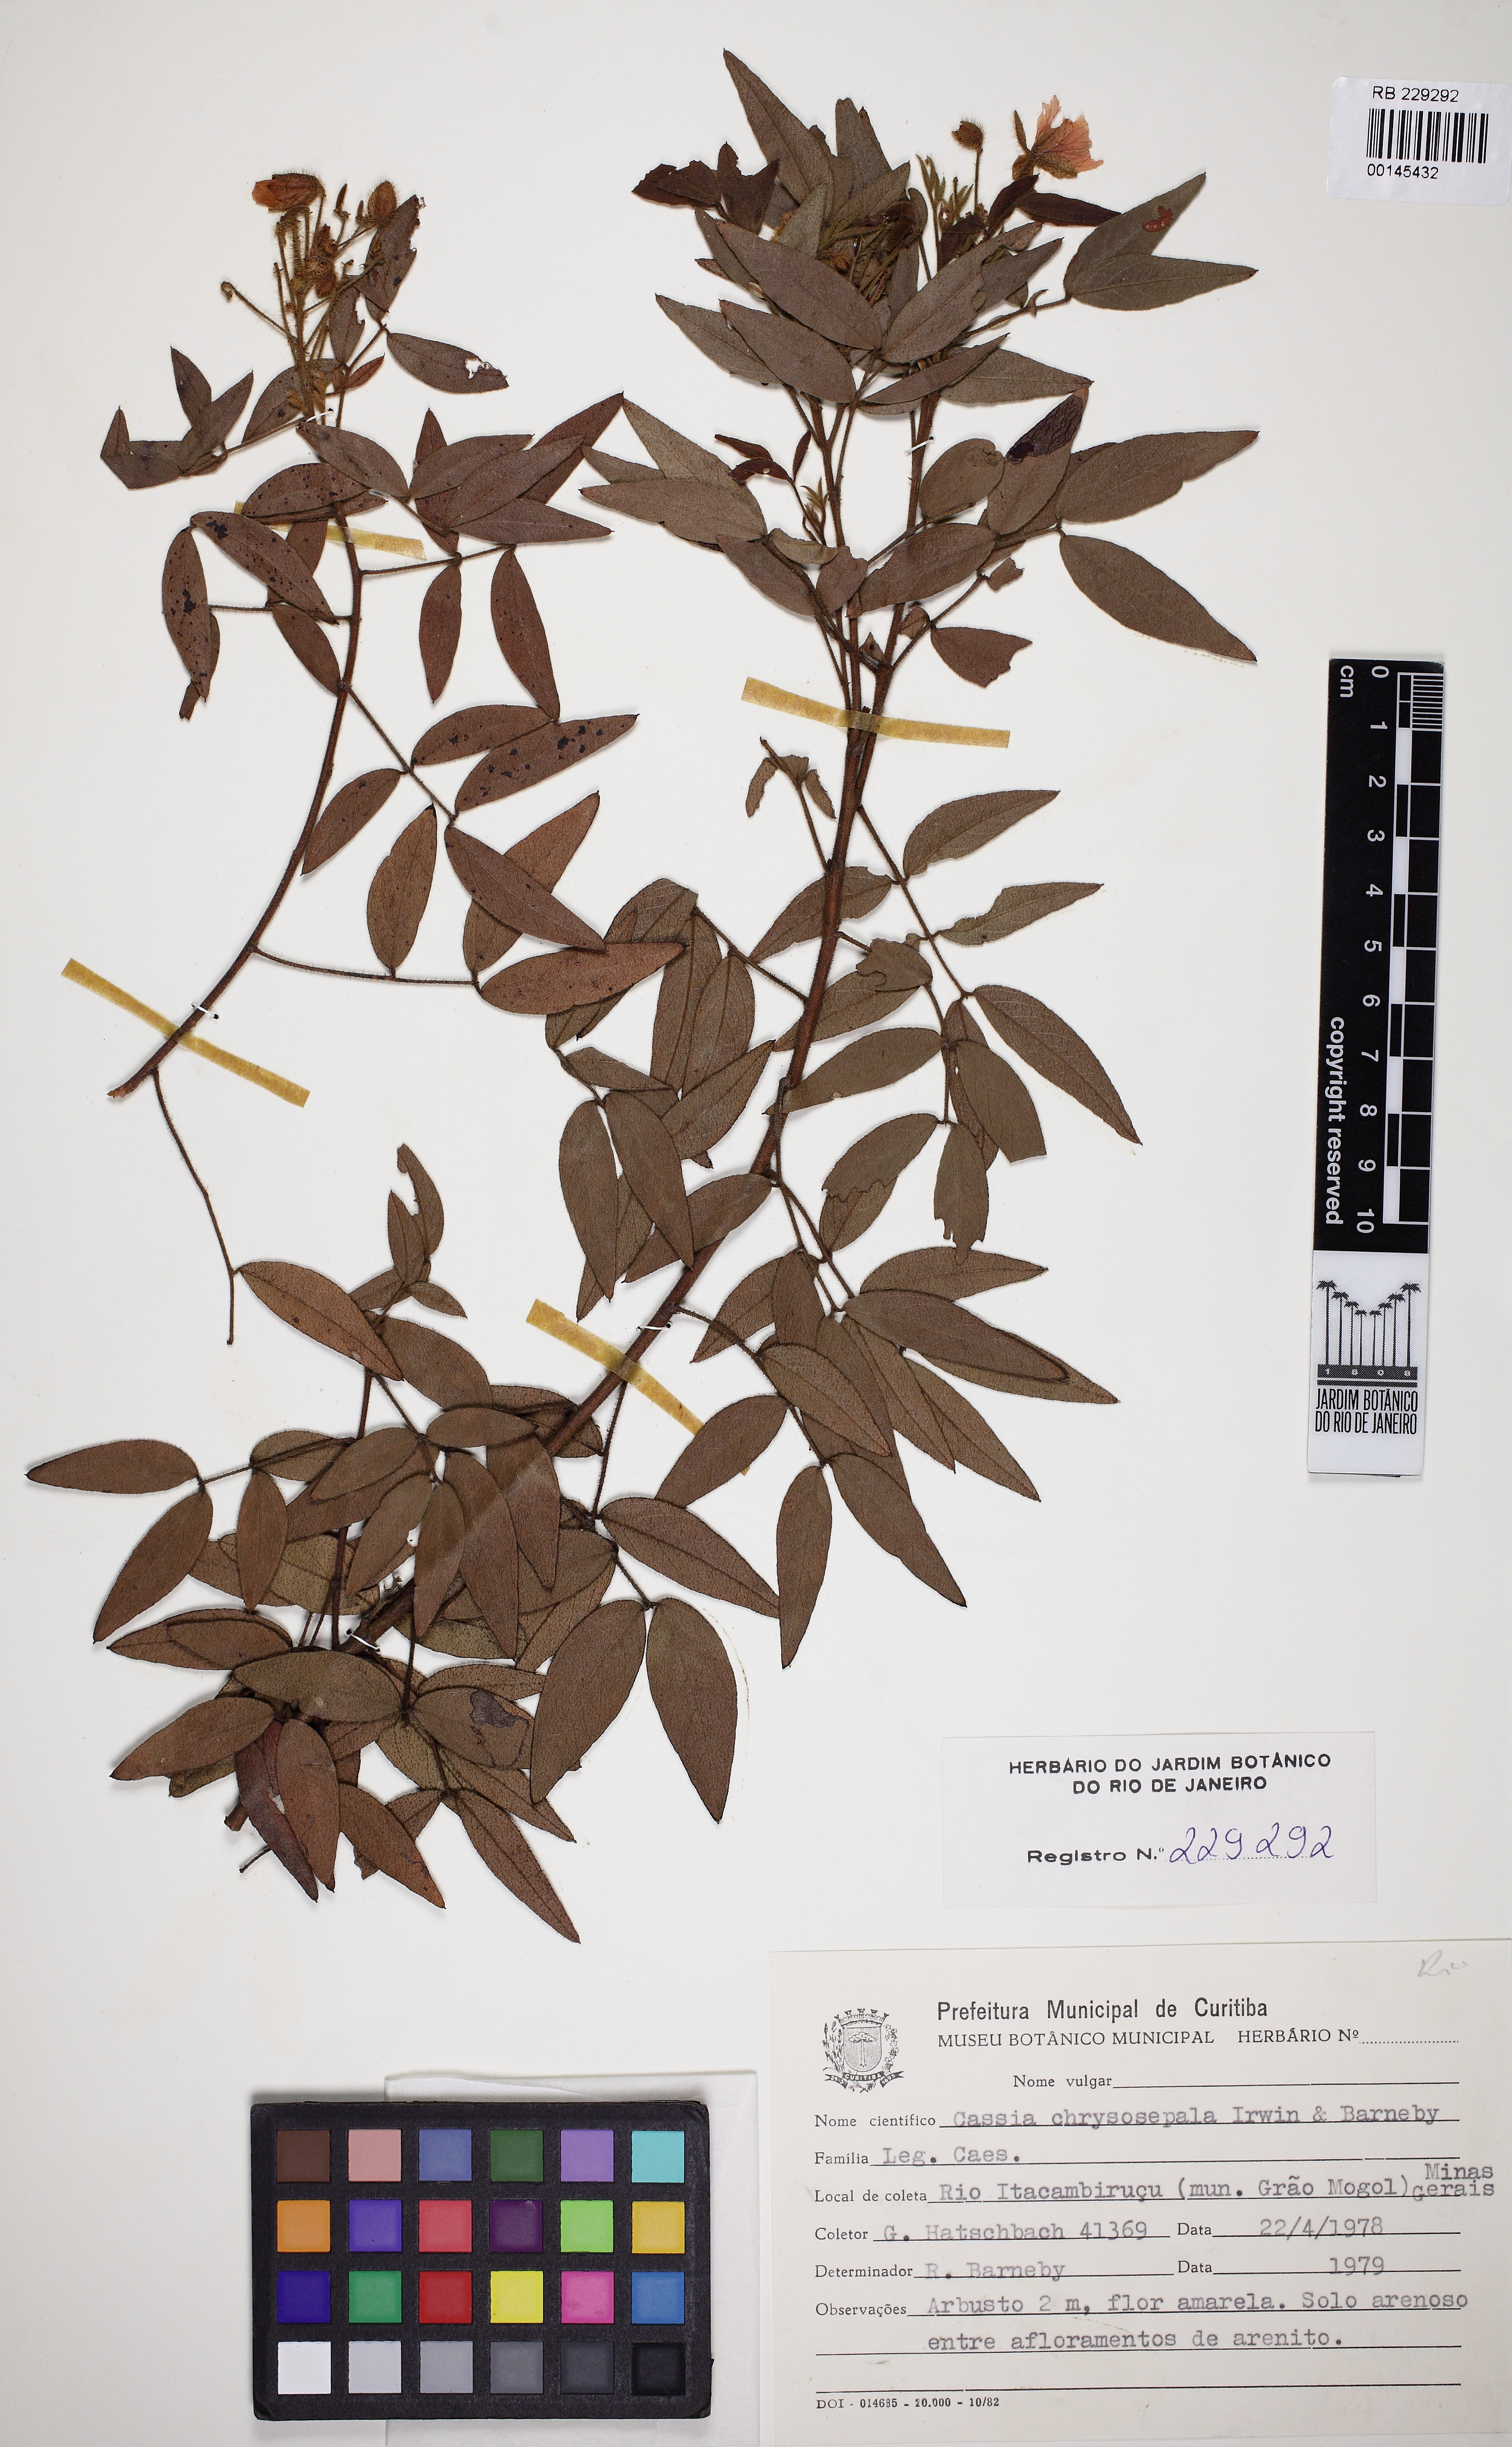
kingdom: Plantae
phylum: Tracheophyta
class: Magnoliopsida
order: Fabales
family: Fabaceae
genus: Chamaecrista
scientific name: Chamaecrista chrysosepala
